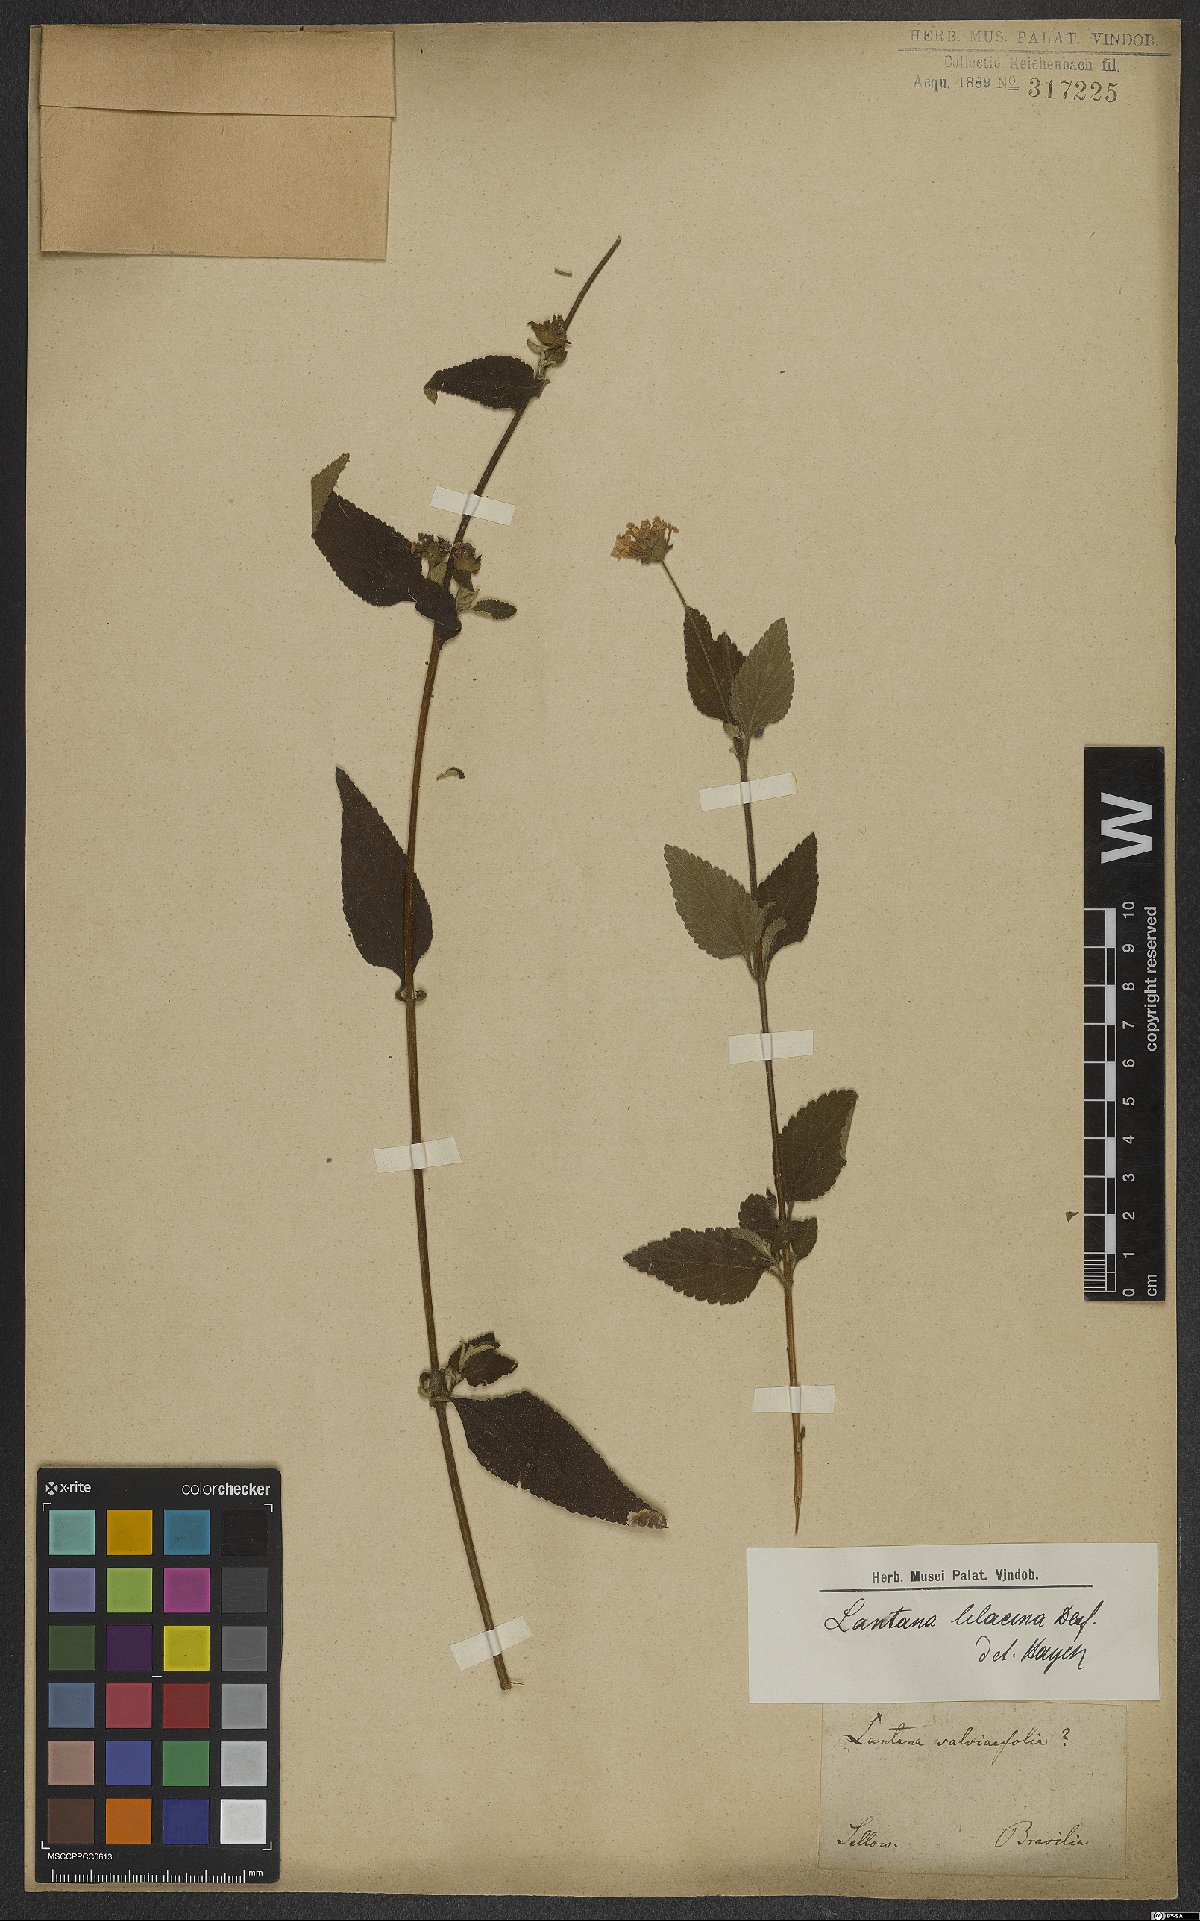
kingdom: Plantae
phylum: Tracheophyta
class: Magnoliopsida
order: Lamiales
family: Verbenaceae
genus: Lantana
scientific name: Lantana fucata
